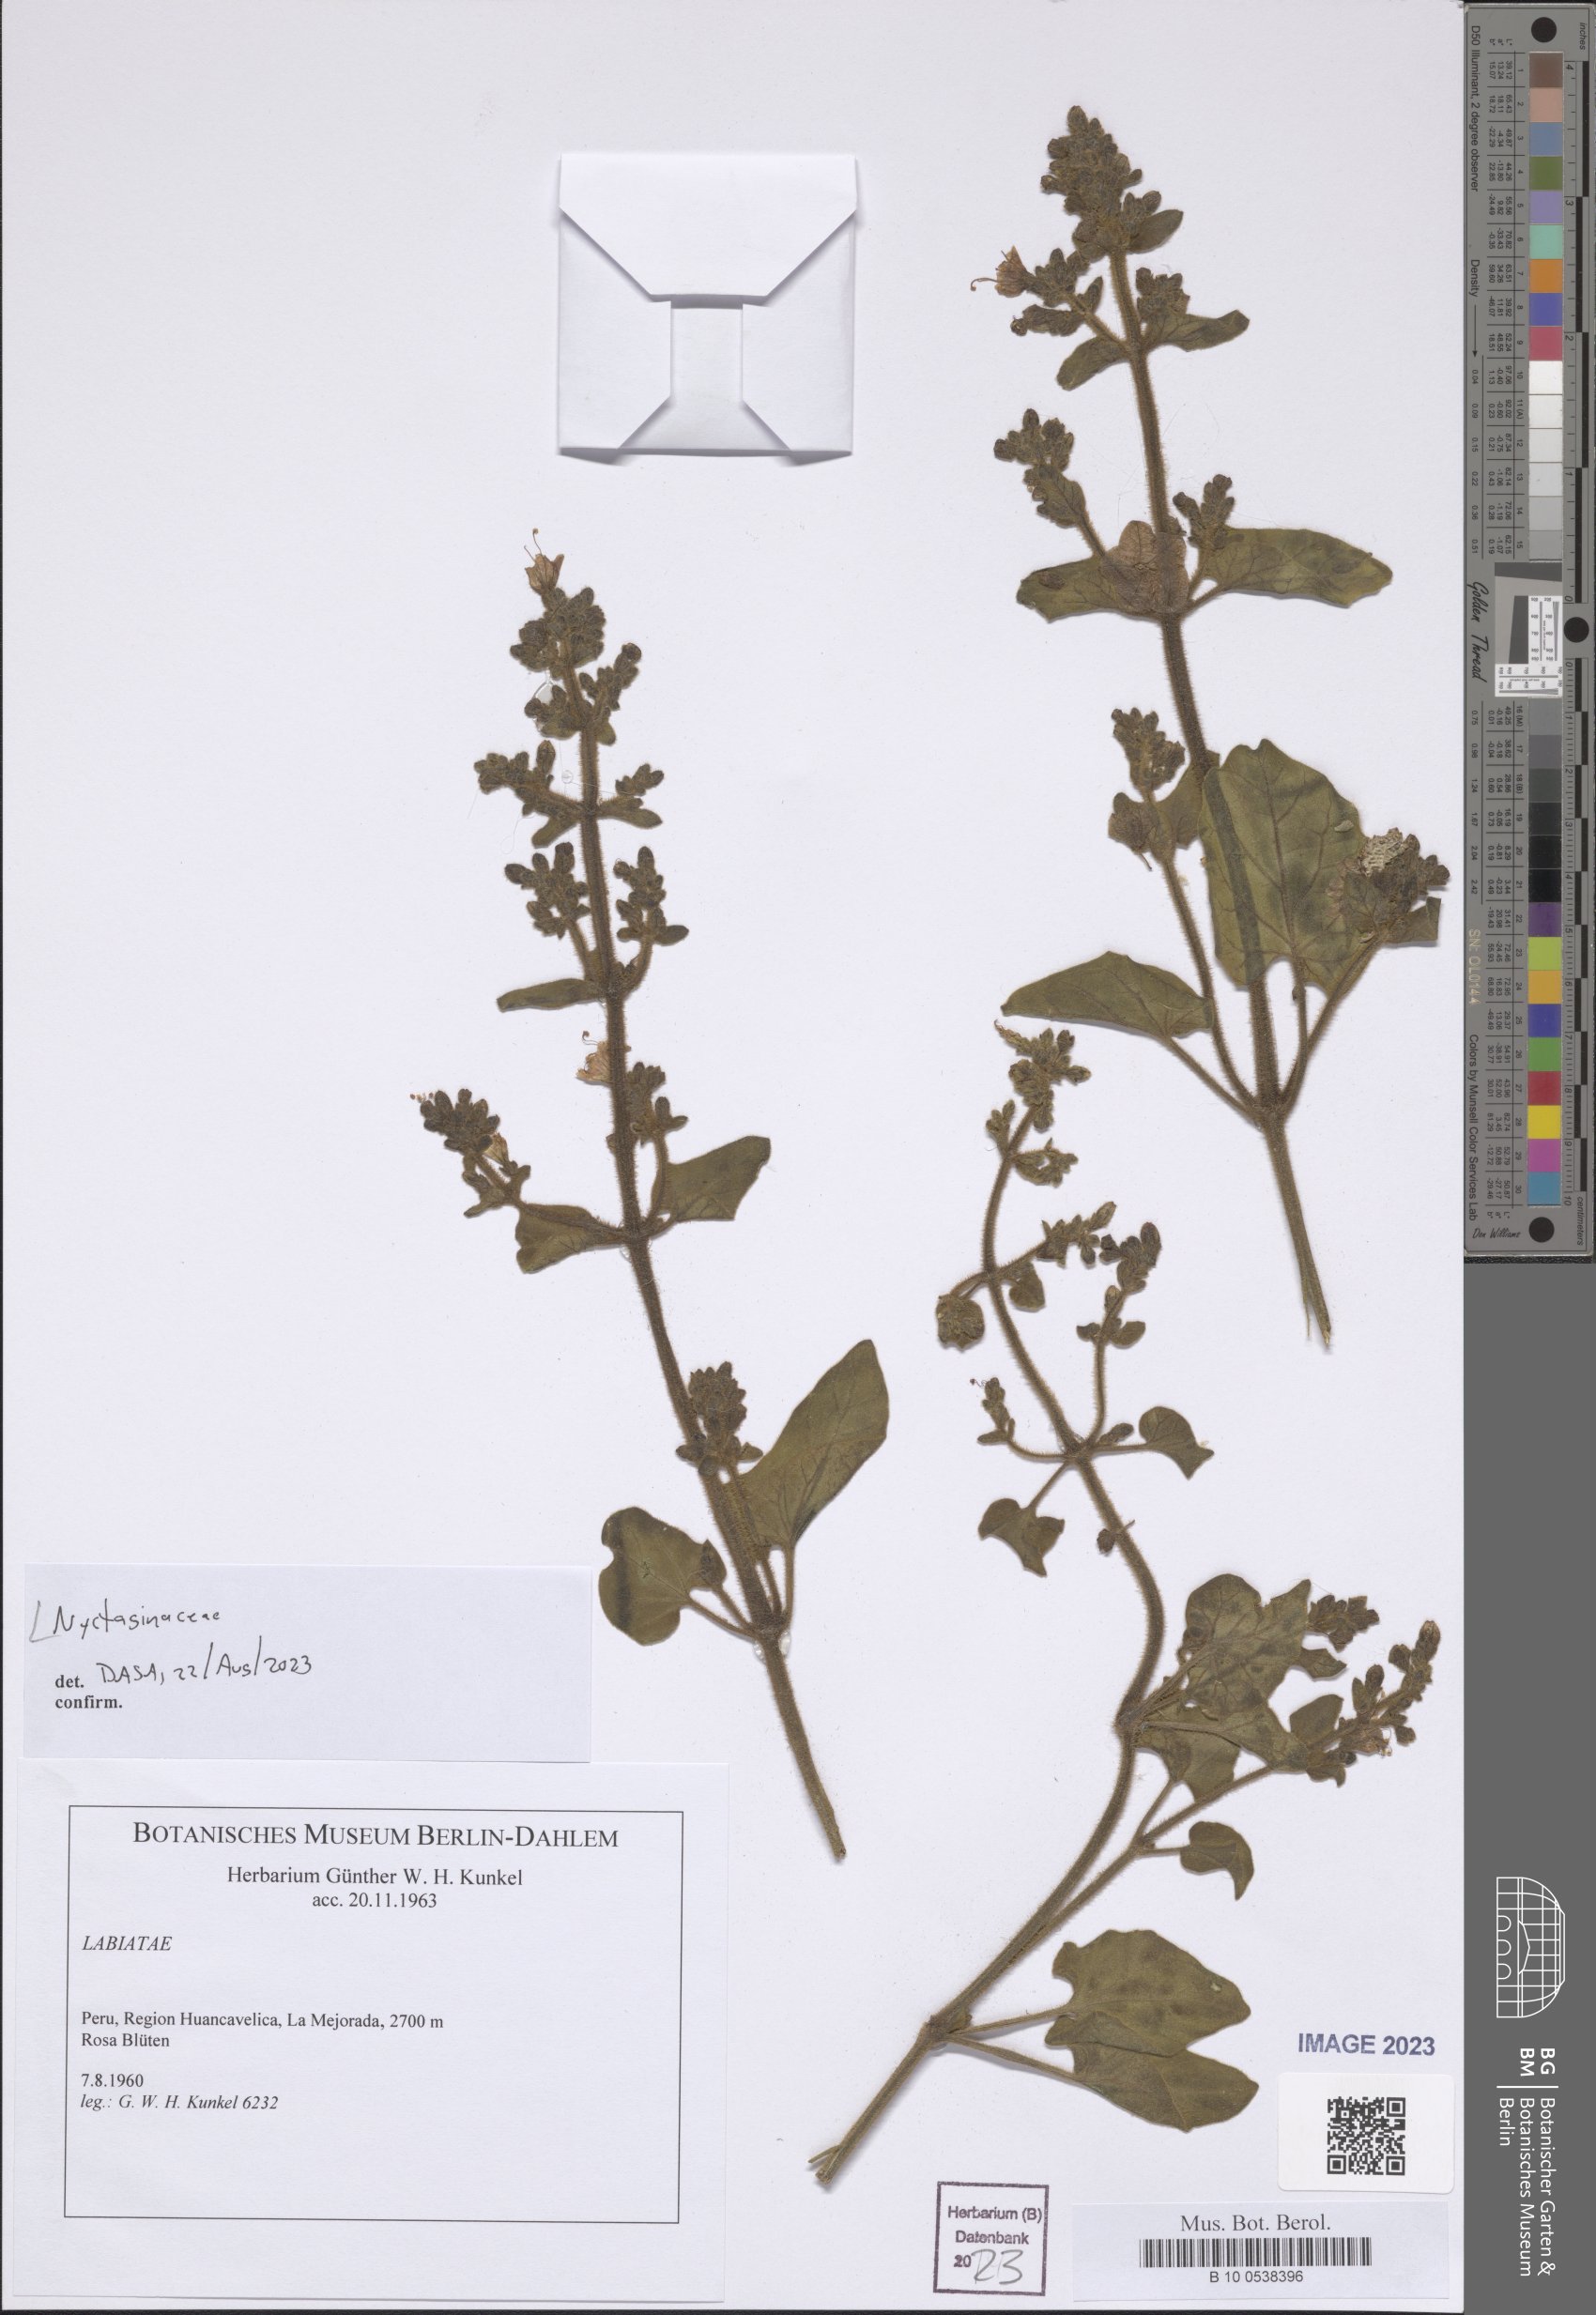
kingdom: Plantae
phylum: Tracheophyta
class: Magnoliopsida
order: Caryophyllales
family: Nyctaginaceae
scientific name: Nyctaginaceae
